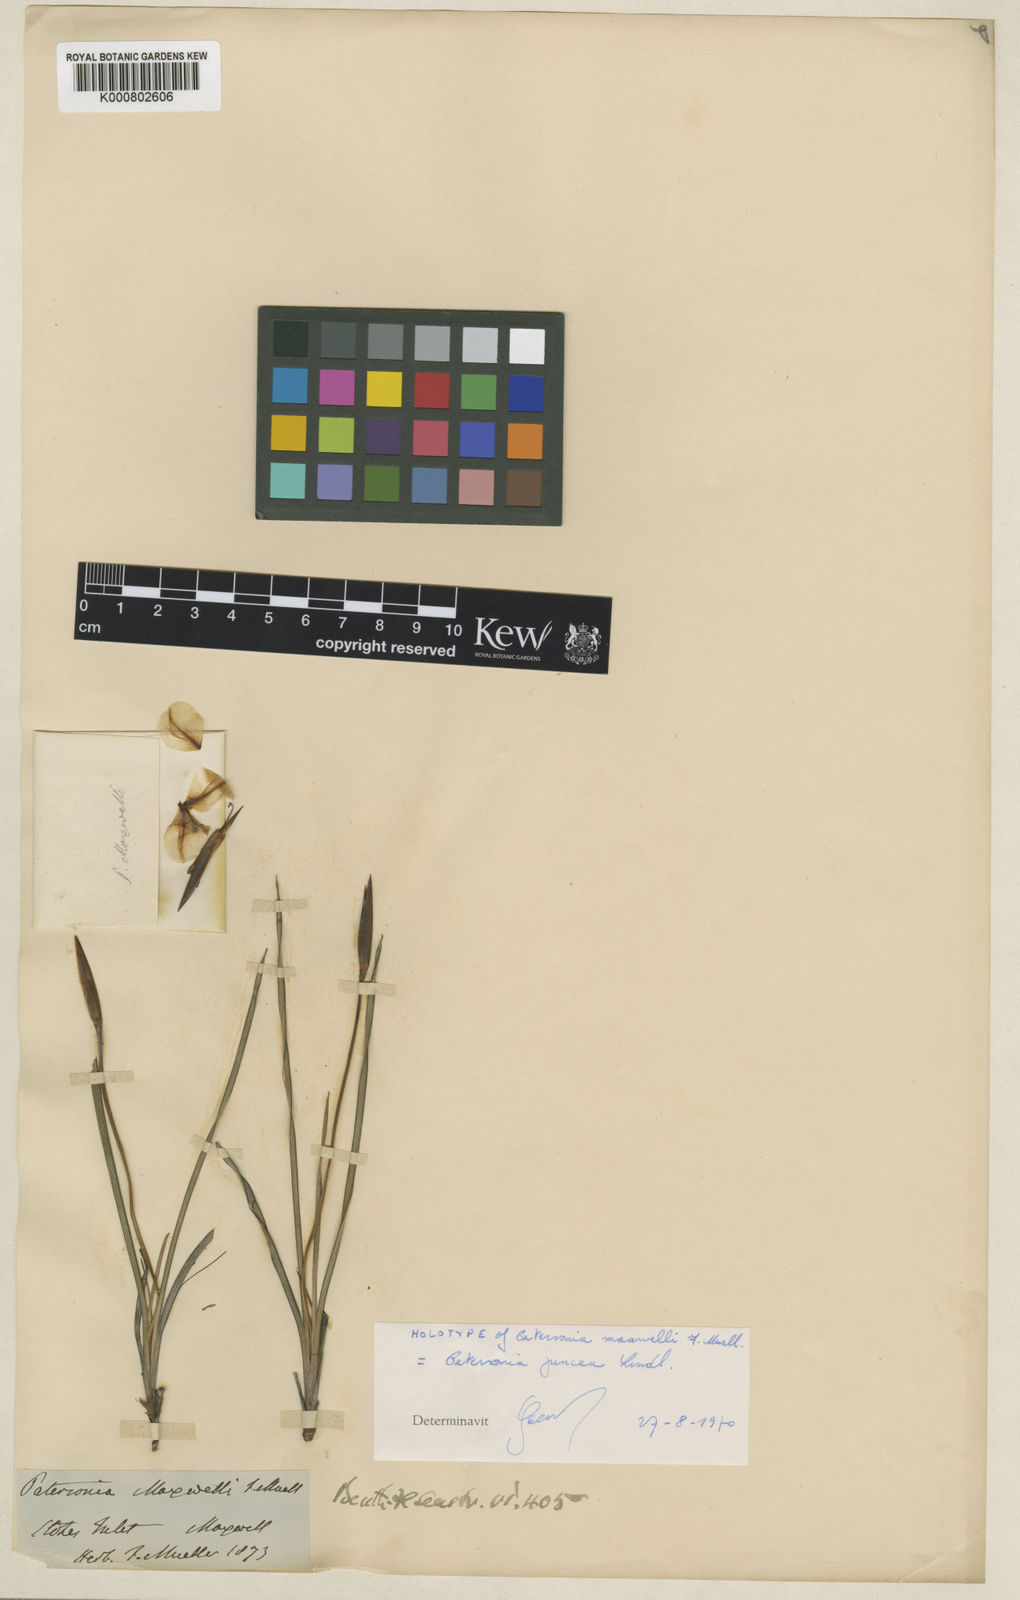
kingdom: Plantae
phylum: Tracheophyta
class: Liliopsida
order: Asparagales
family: Iridaceae
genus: Patersonia
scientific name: Patersonia maxwellii
